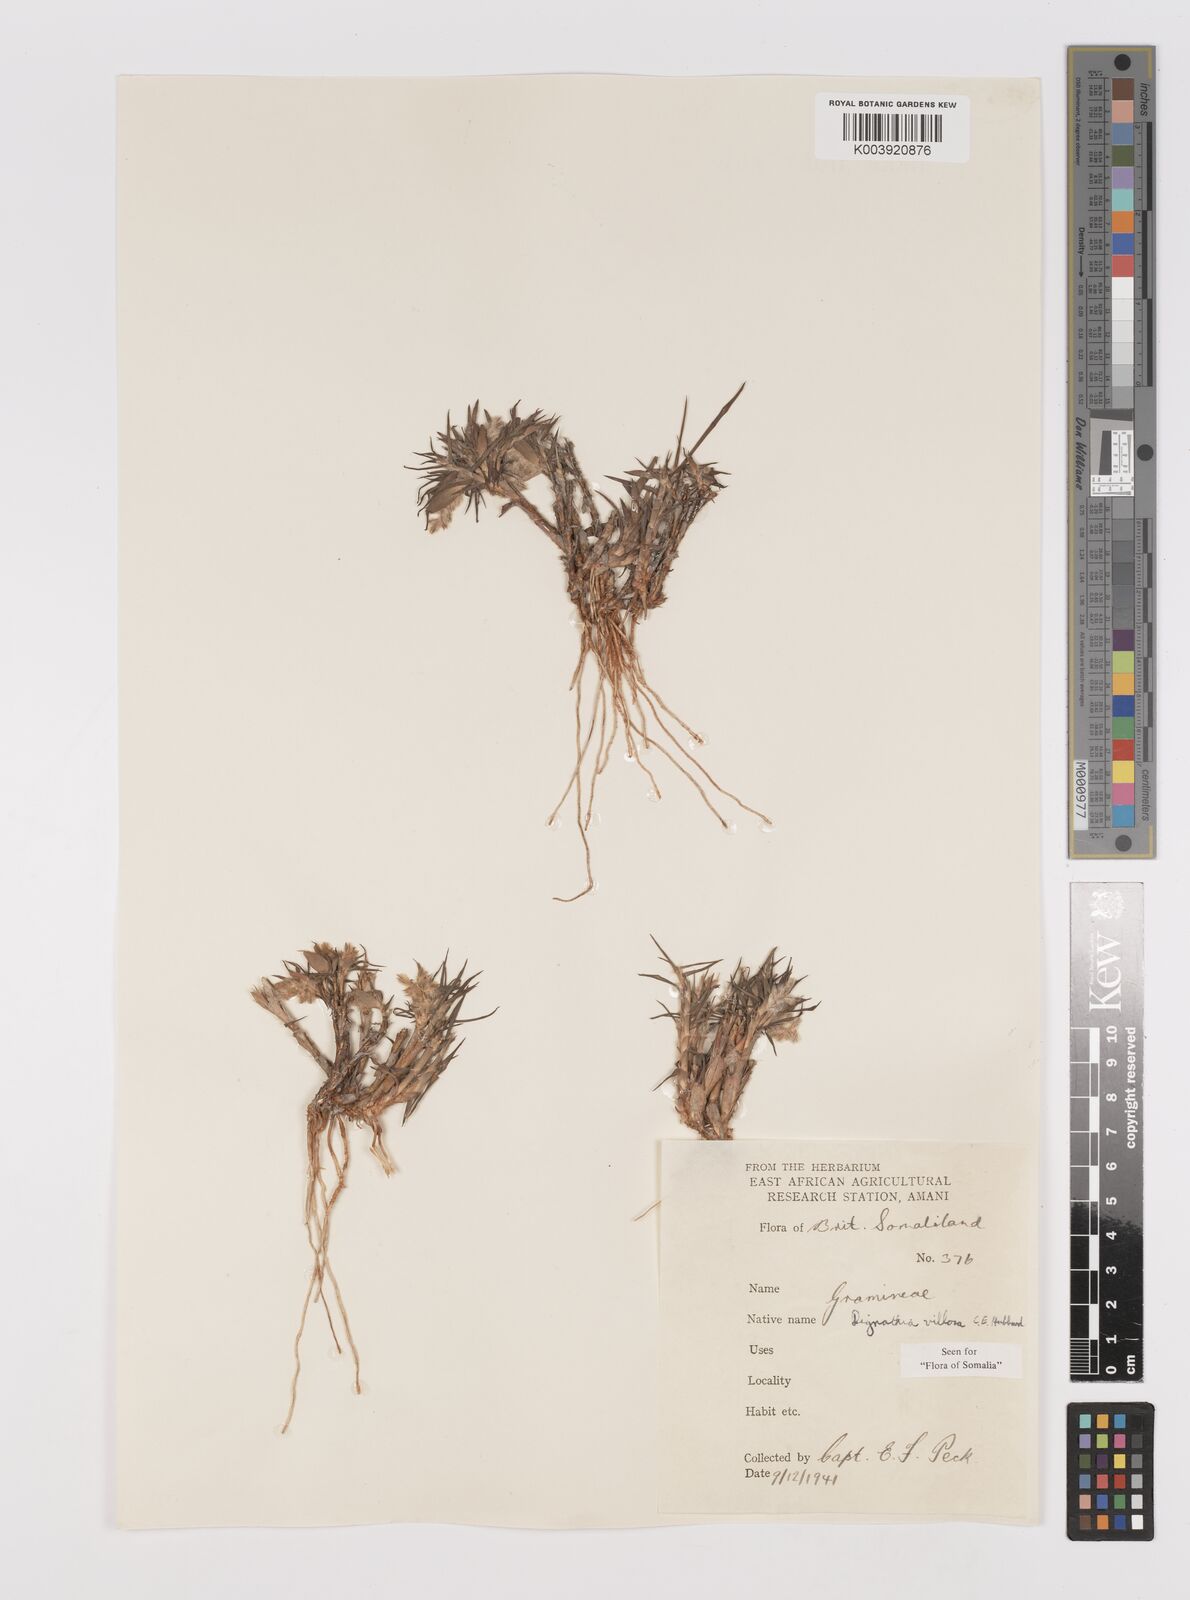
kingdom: Plantae
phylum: Tracheophyta
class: Liliopsida
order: Poales
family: Poaceae
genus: Dignathia
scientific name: Dignathia villosa
